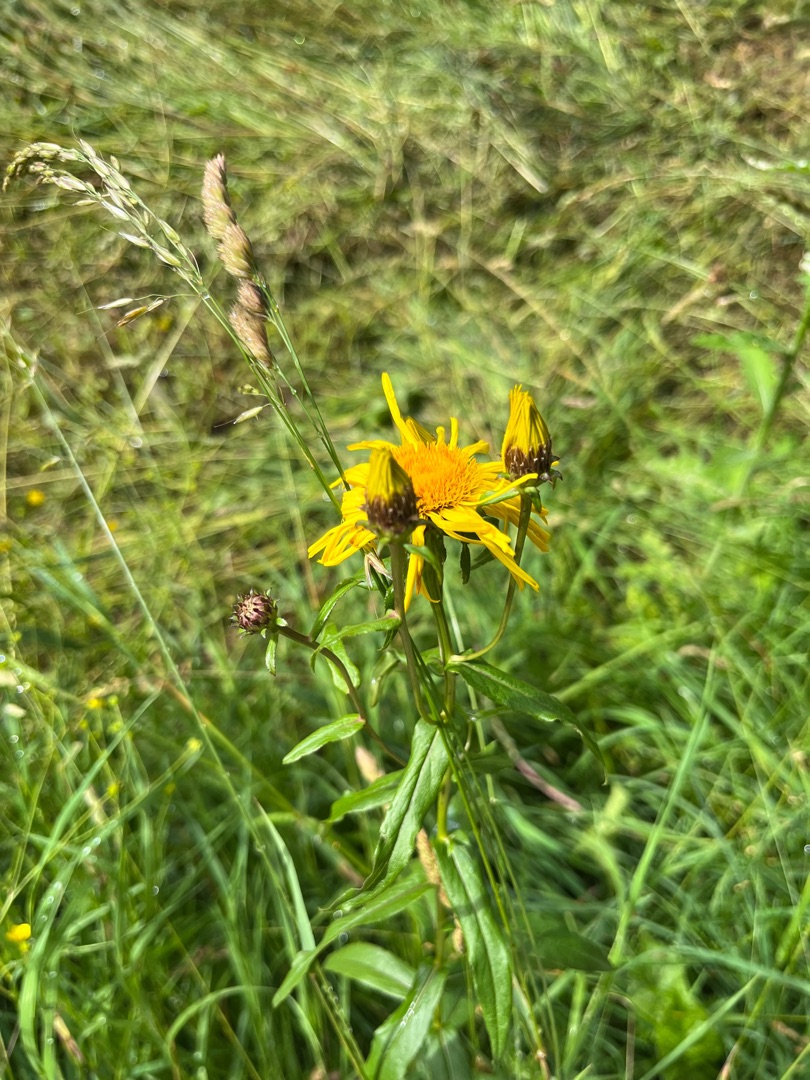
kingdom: Plantae
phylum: Tracheophyta
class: Magnoliopsida
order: Asterales
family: Asteraceae
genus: Pentanema
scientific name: Pentanema salicinum
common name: Pile-alant
